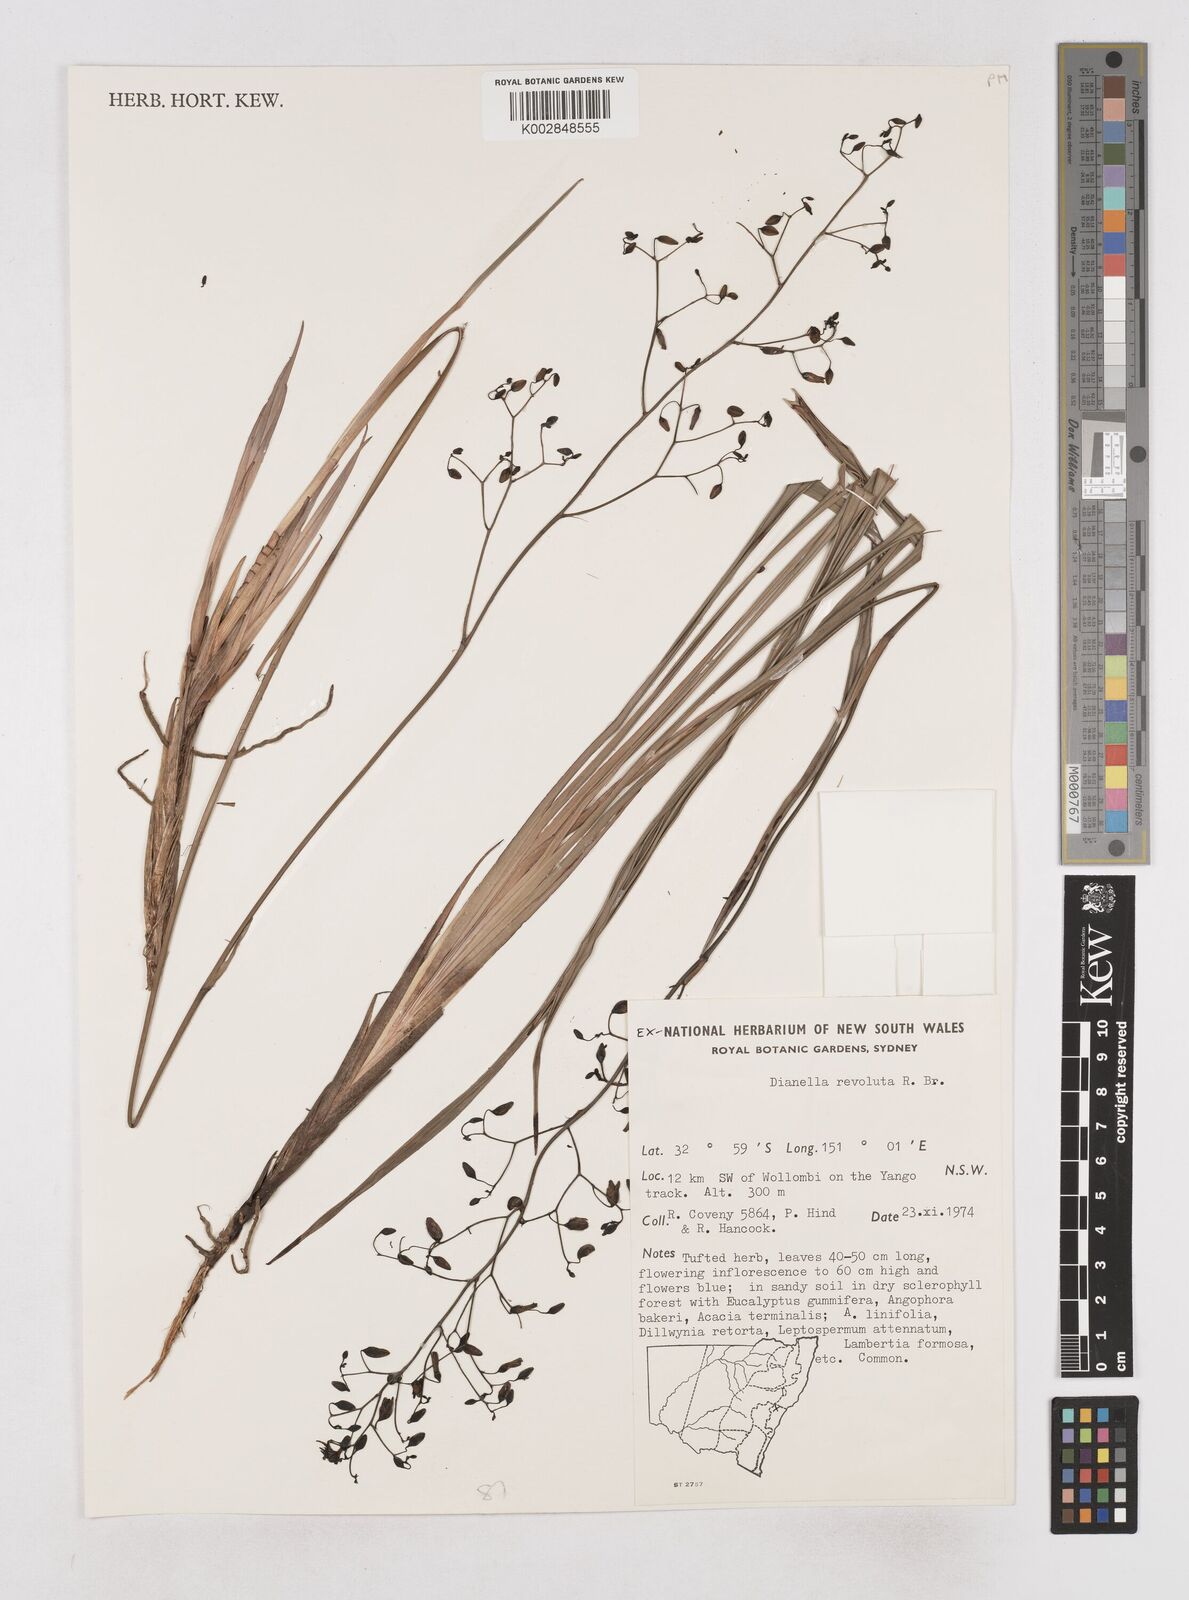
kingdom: Plantae
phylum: Tracheophyta
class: Liliopsida
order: Asparagales
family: Asphodelaceae
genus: Dianella
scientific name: Dianella revoluta
